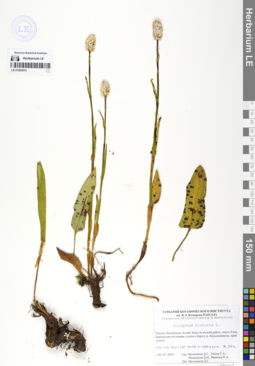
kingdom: Plantae
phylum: Tracheophyta
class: Magnoliopsida
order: Caryophyllales
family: Polygonaceae
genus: Bistorta
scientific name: Bistorta officinalis
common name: Common bistort
